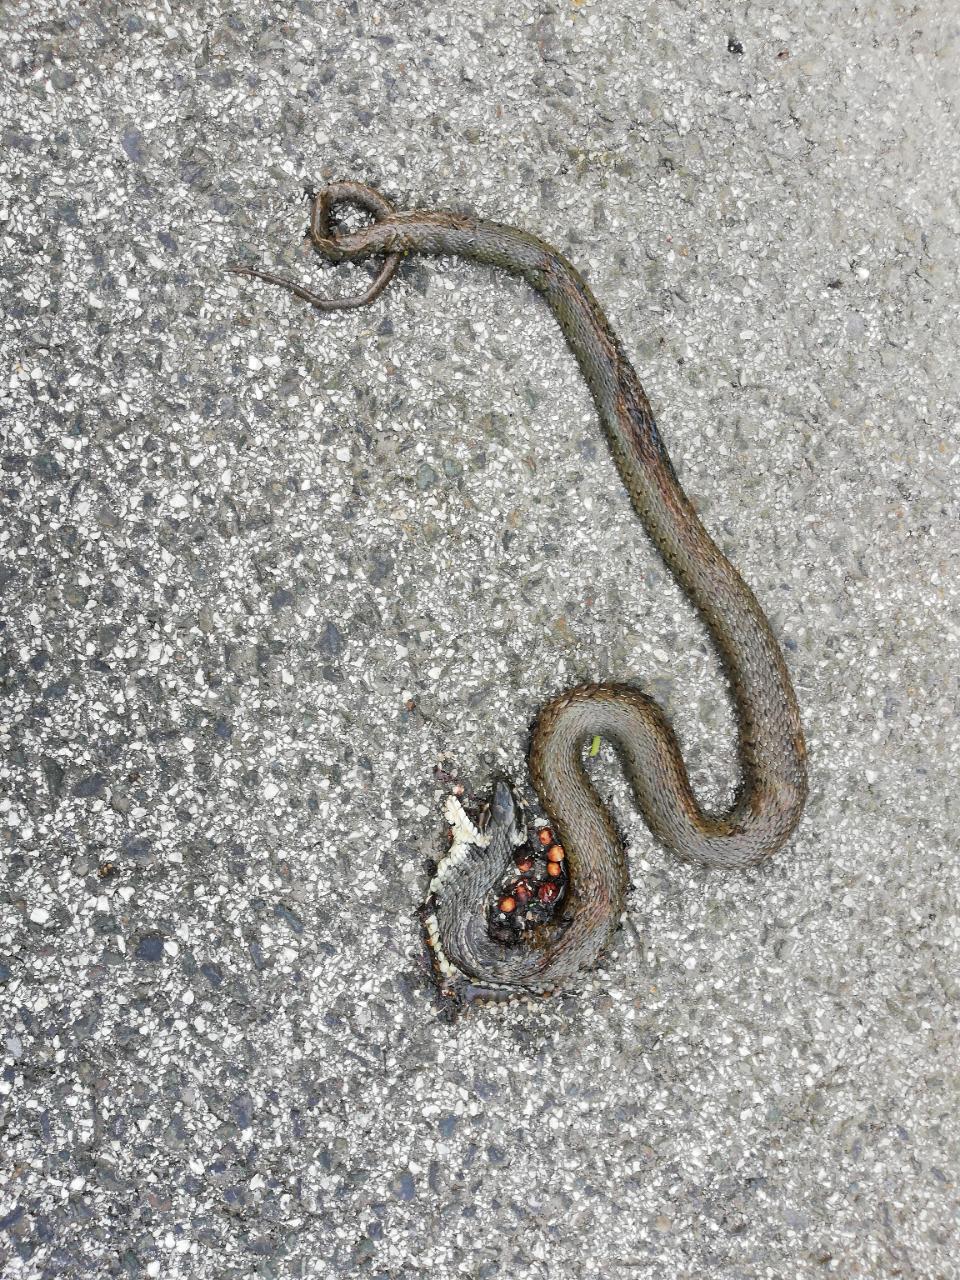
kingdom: Animalia
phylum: Chordata
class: Squamata
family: Colubridae
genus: Natrix
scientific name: Natrix natrix
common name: Grass snake
